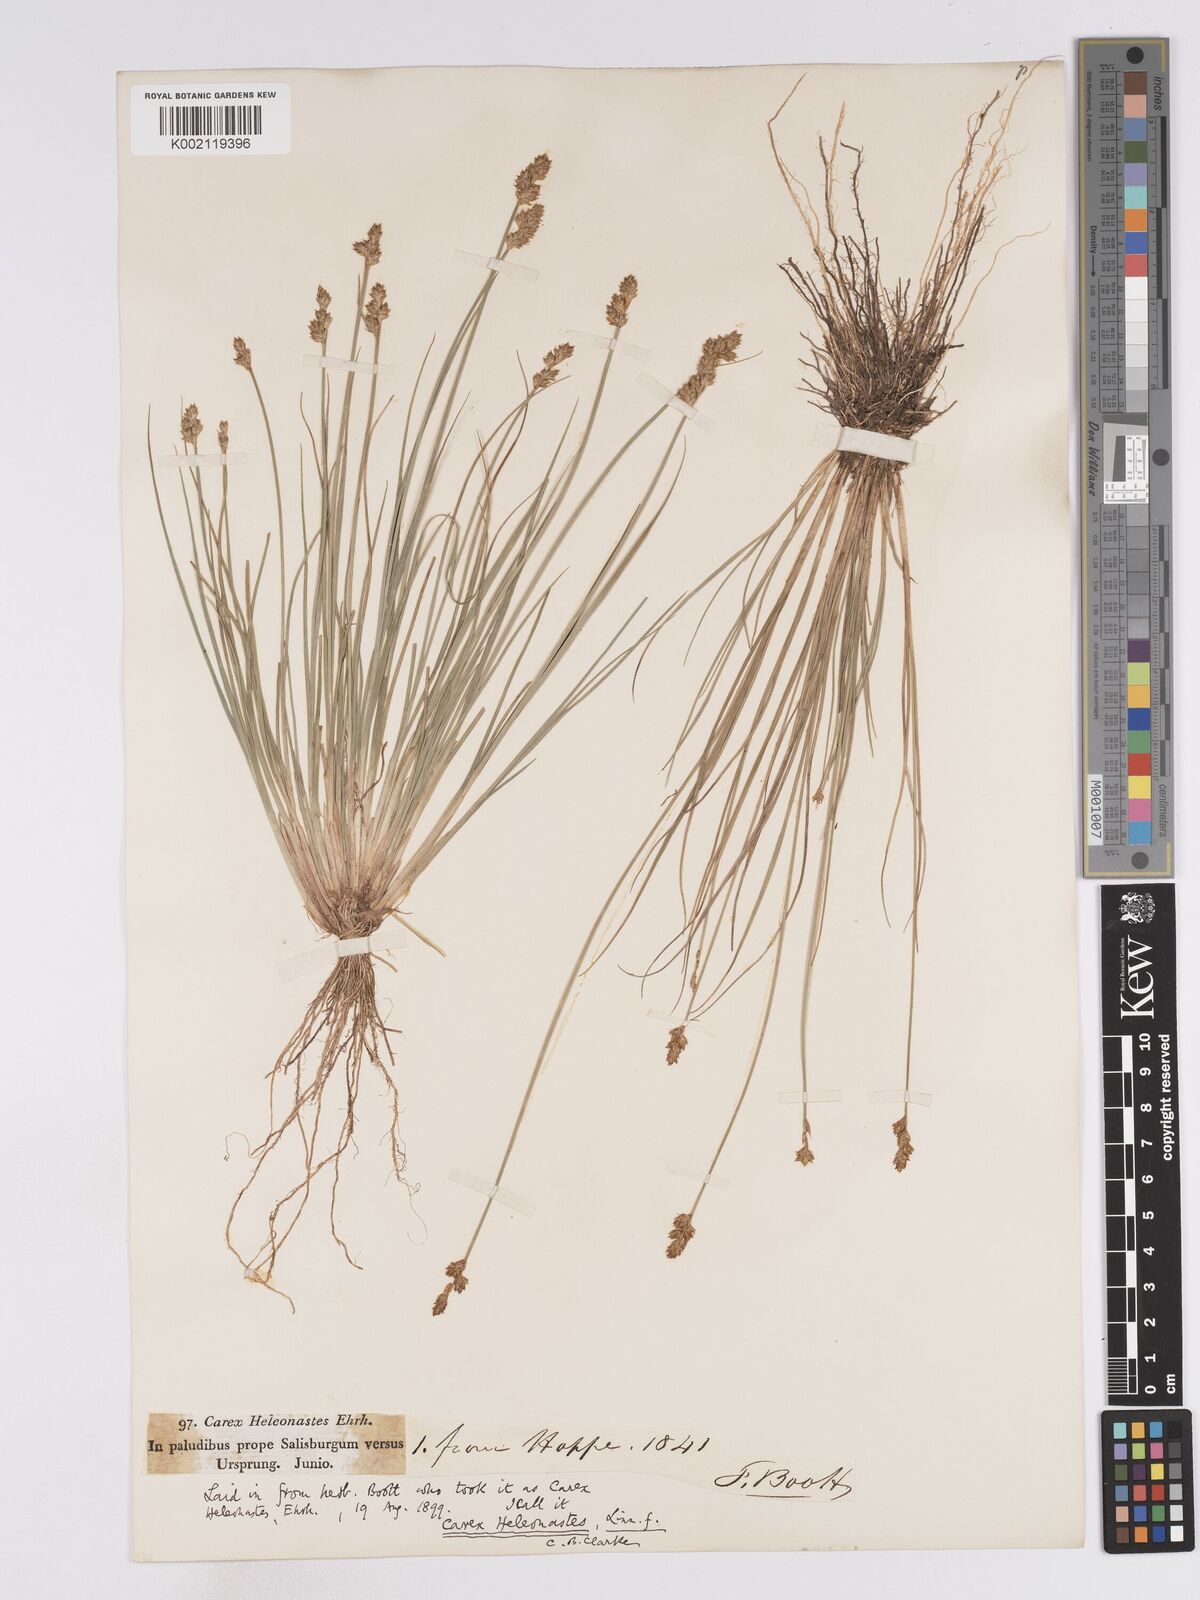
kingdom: Plantae
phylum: Tracheophyta
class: Liliopsida
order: Poales
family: Cyperaceae
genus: Carex
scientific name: Carex heleonastes
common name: Hudson bay sedge
